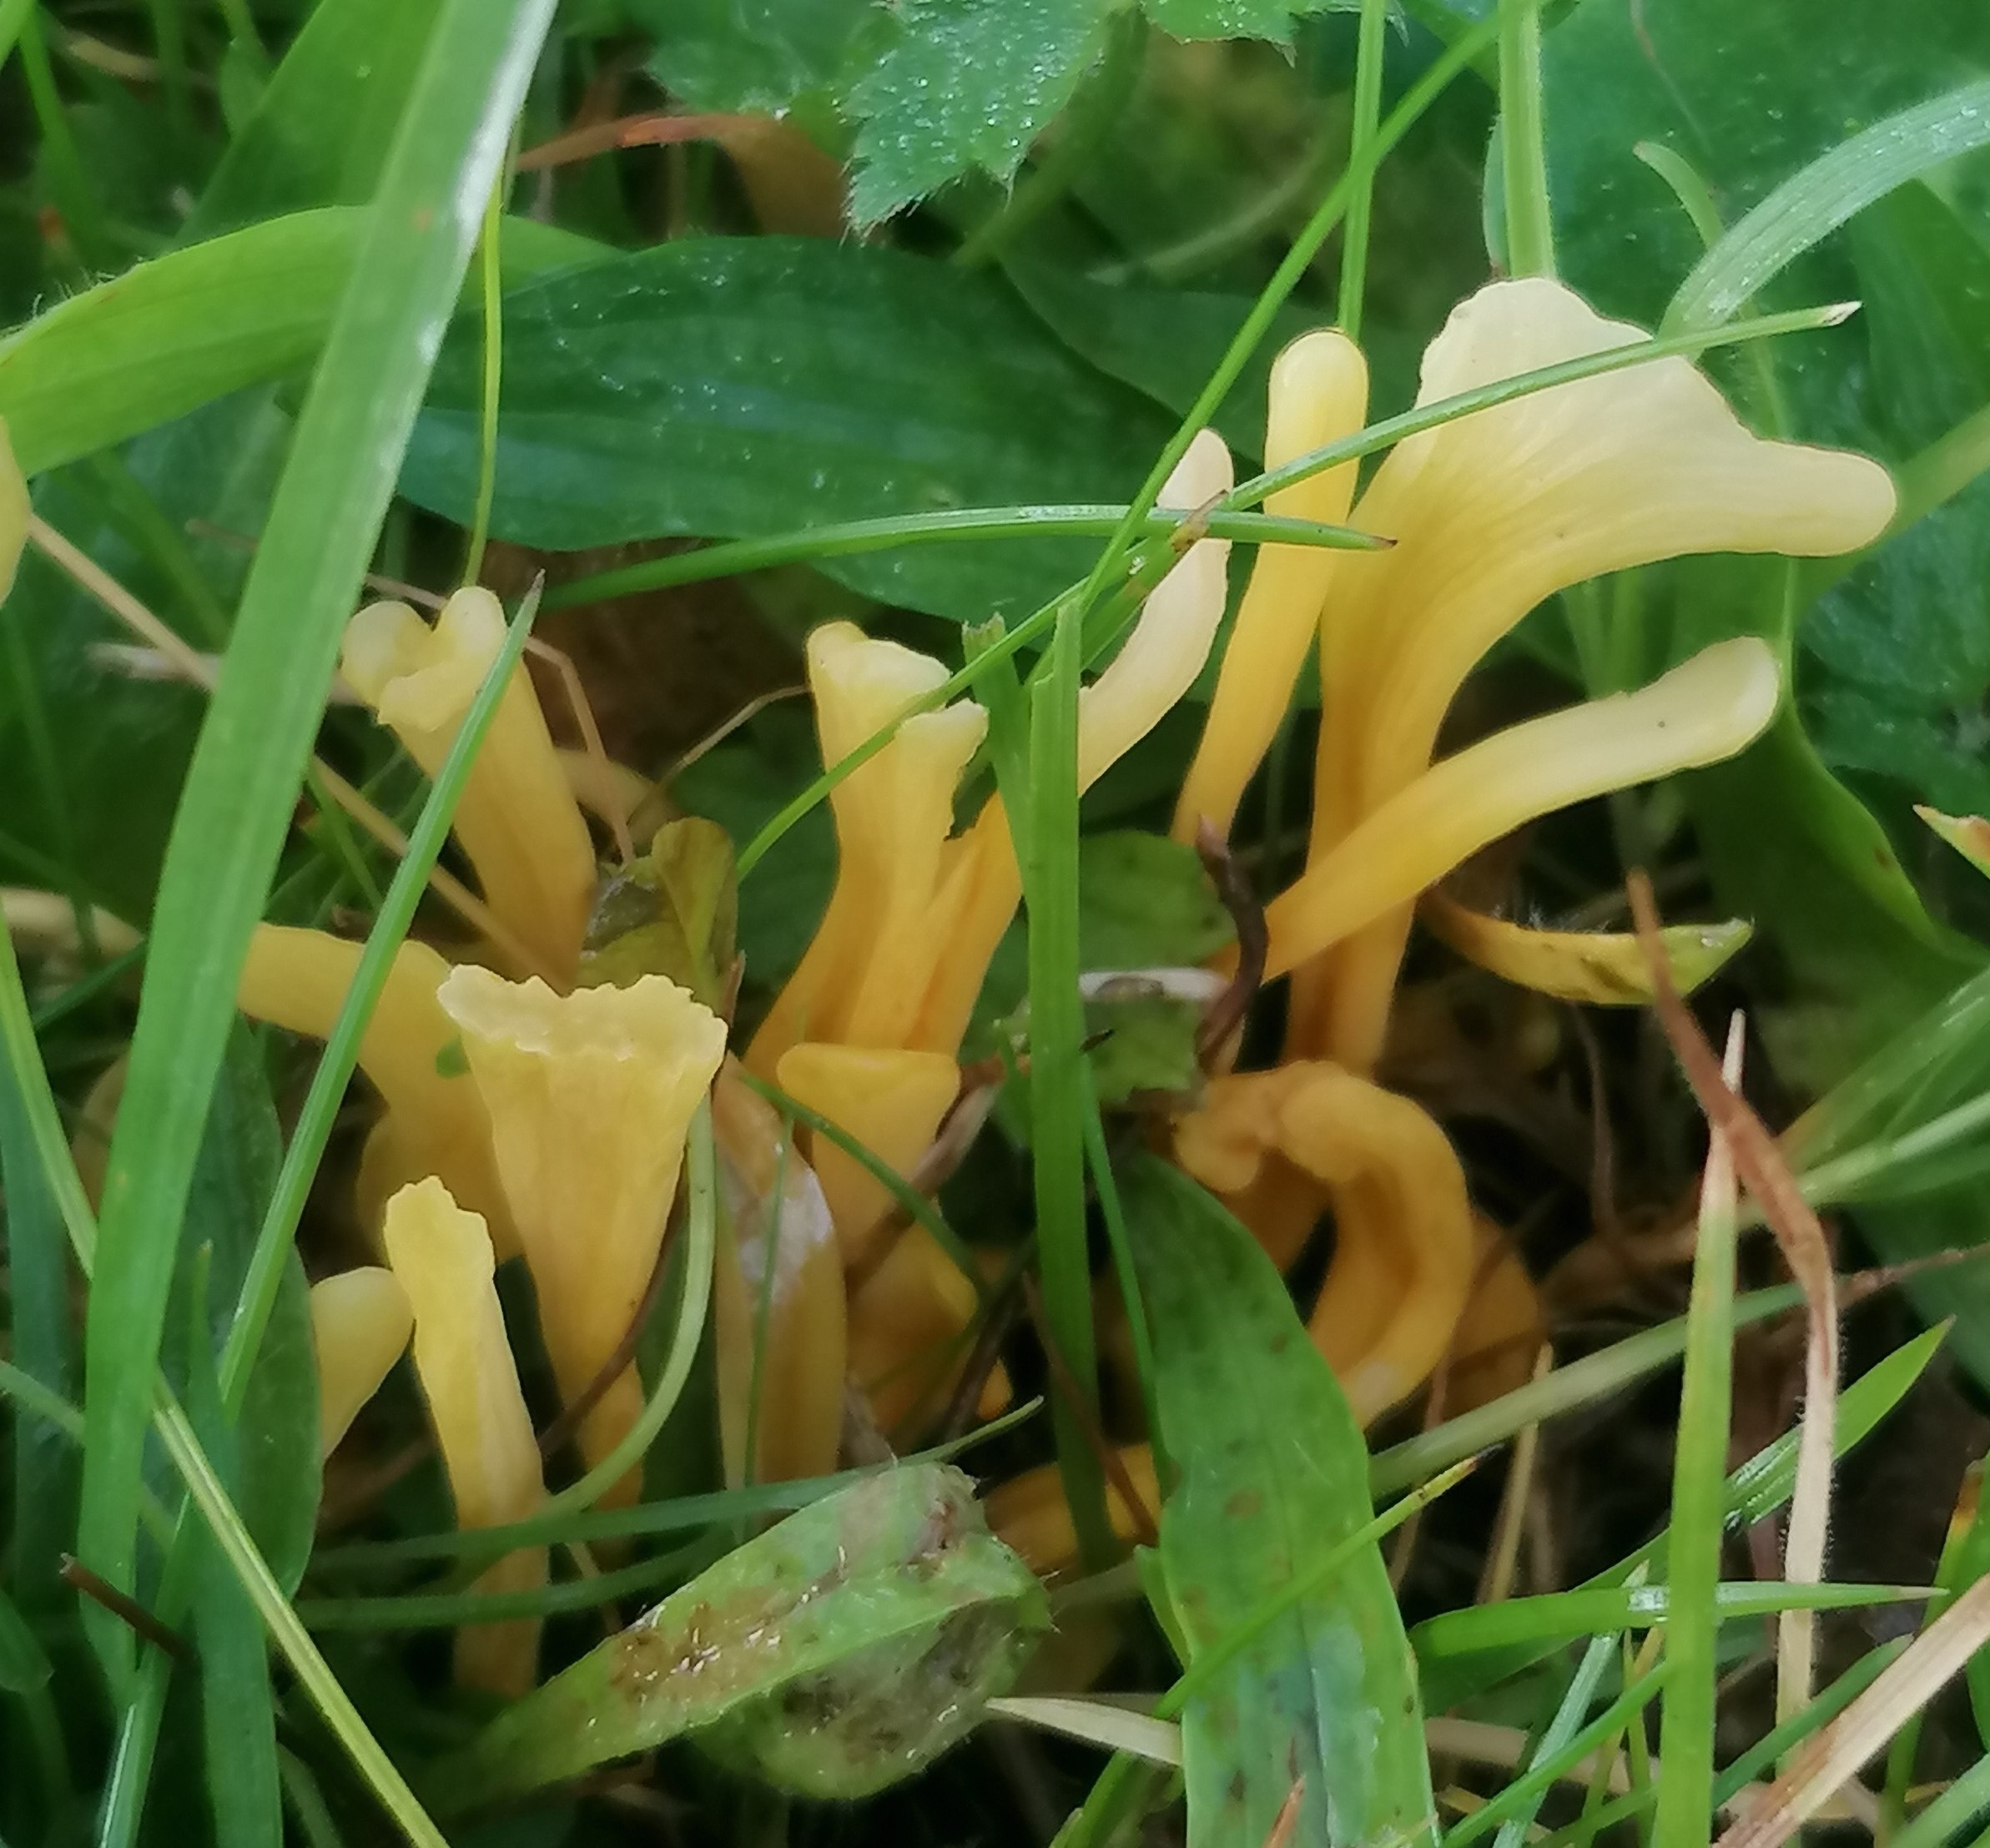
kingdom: Fungi
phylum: Basidiomycota
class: Agaricomycetes
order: Agaricales
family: Clavariaceae
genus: Clavulinopsis
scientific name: Clavulinopsis
